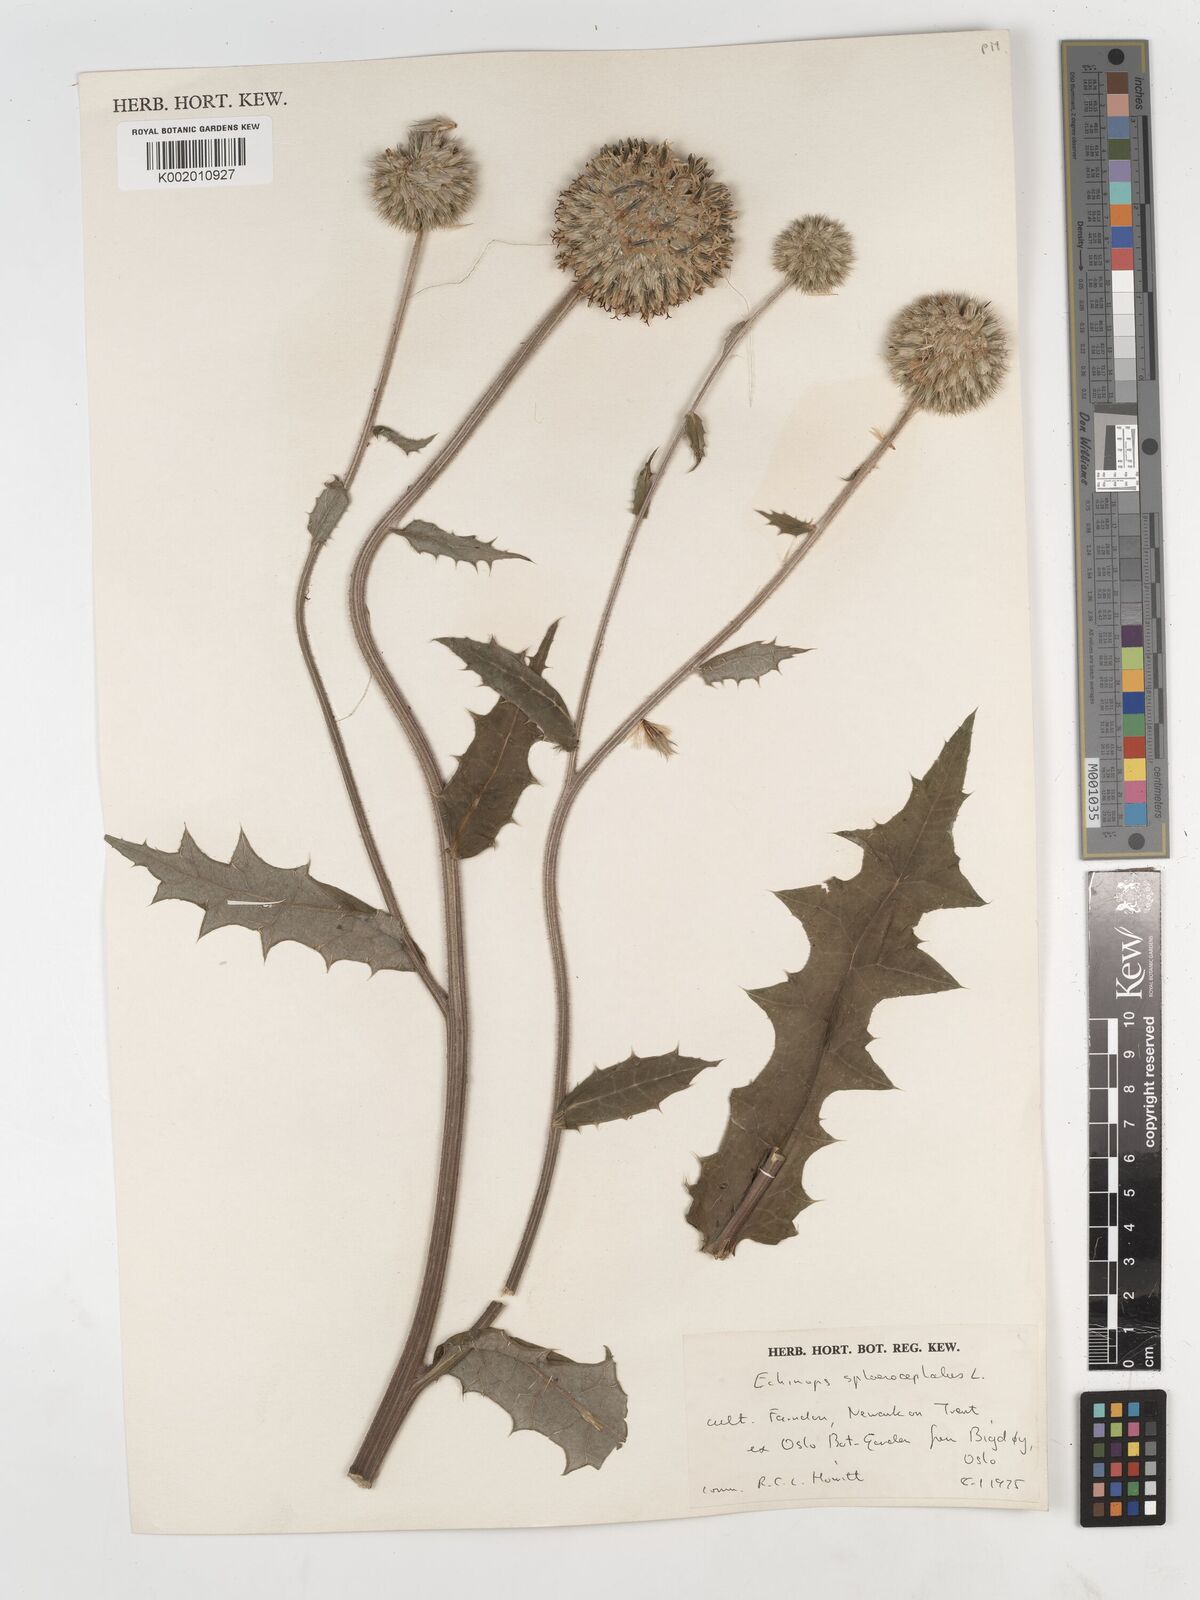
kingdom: Plantae
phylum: Tracheophyta
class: Magnoliopsida
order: Asterales
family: Asteraceae
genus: Echinops
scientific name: Echinops sphaerocephalus
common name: Glandular globe-thistle
